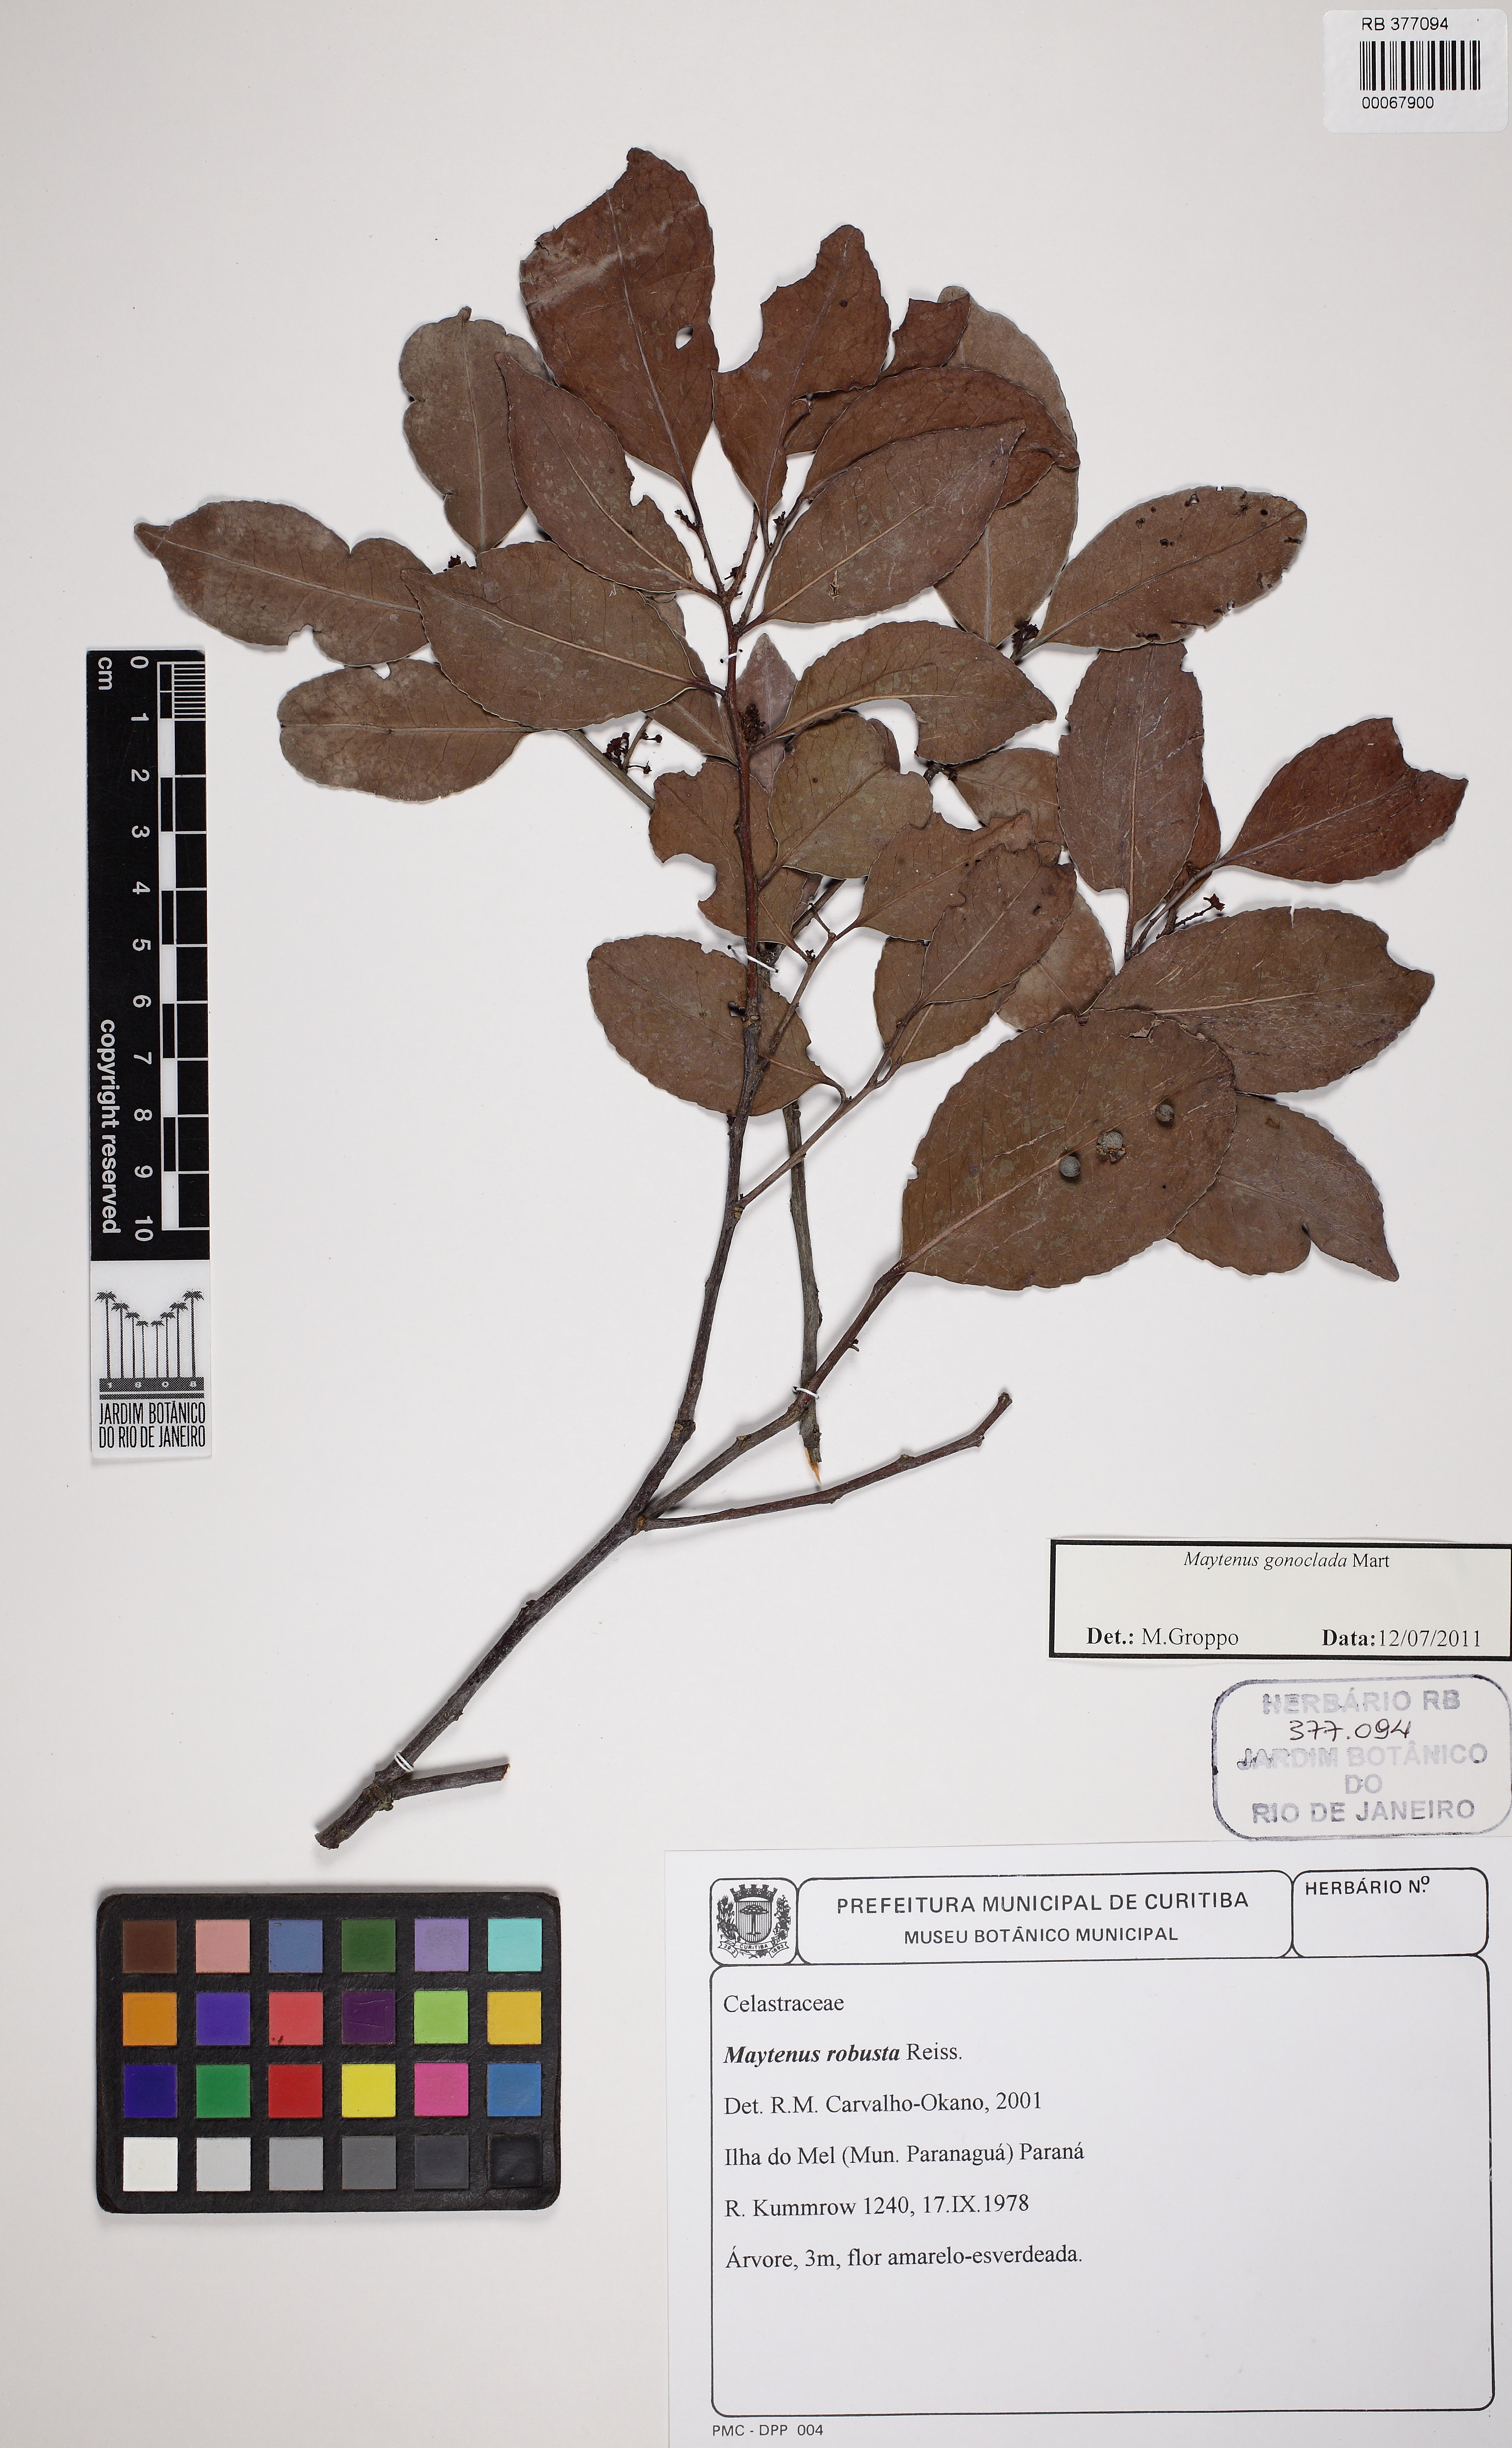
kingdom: Plantae
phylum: Tracheophyta
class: Magnoliopsida
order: Celastrales
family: Celastraceae
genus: Monteverdia
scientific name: Monteverdia gonoclada
